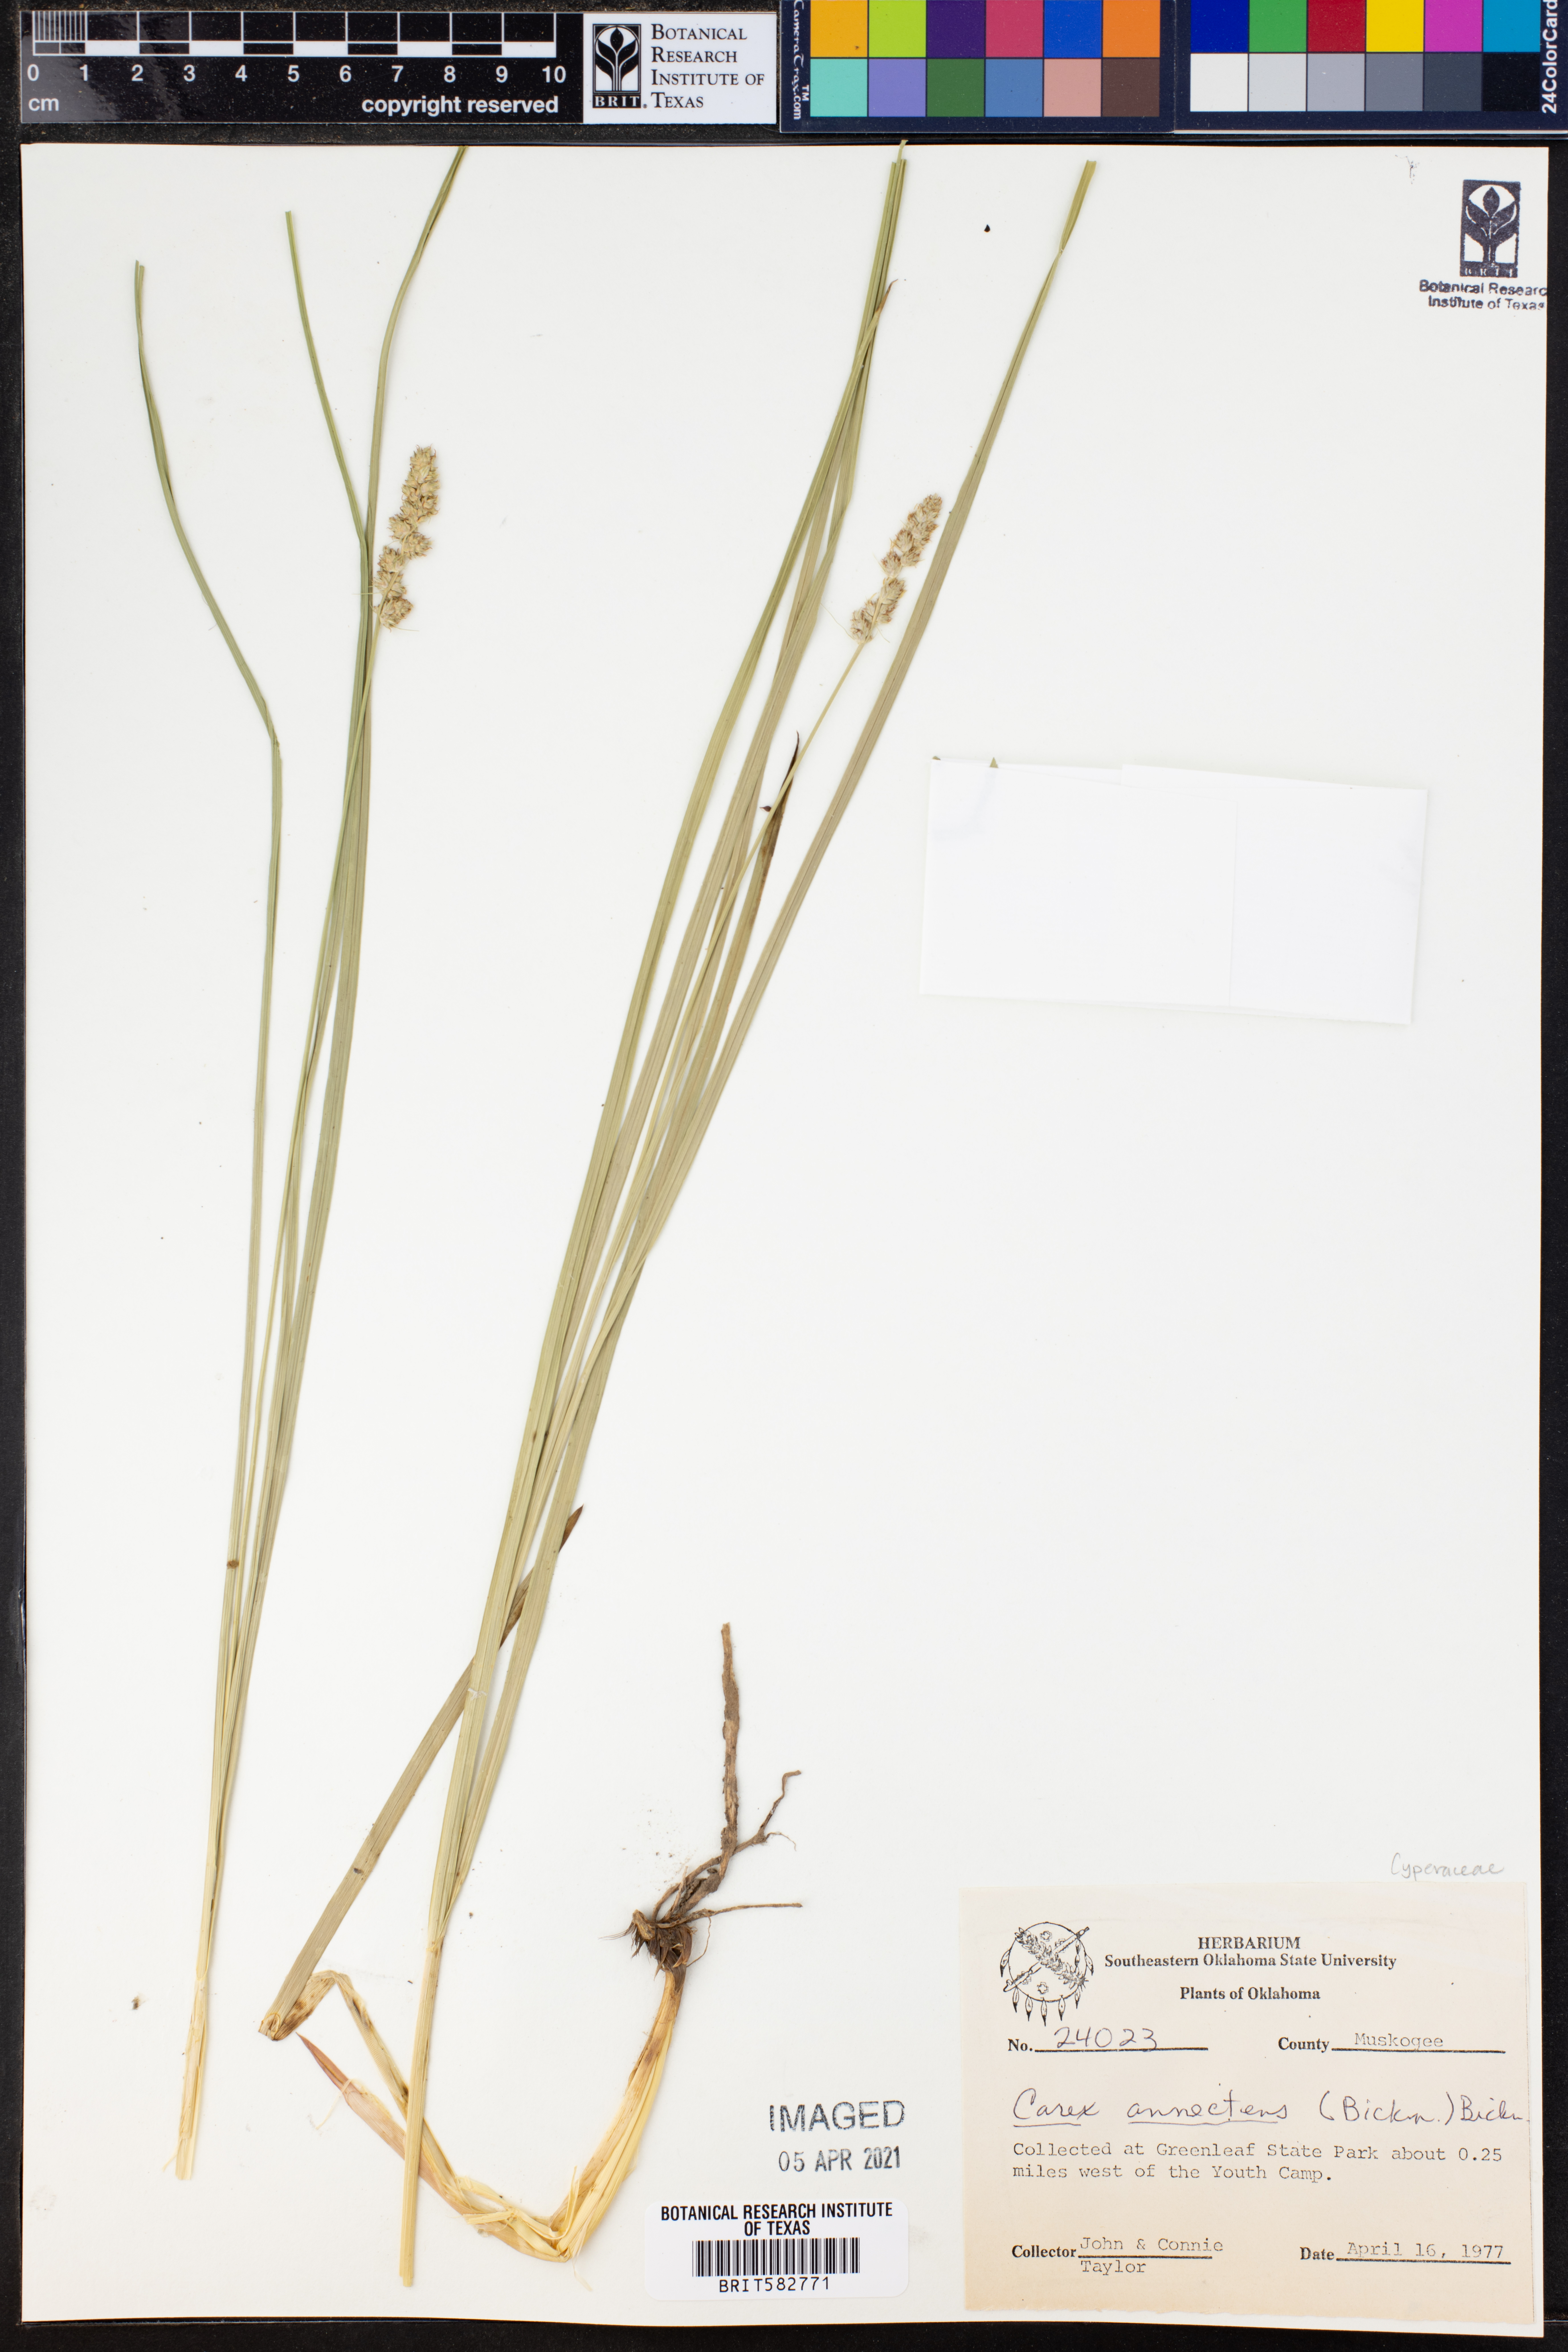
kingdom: Plantae
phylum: Tracheophyta
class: Liliopsida
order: Poales
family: Cyperaceae
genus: Carex
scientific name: Carex annectens
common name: Large fox sedge
